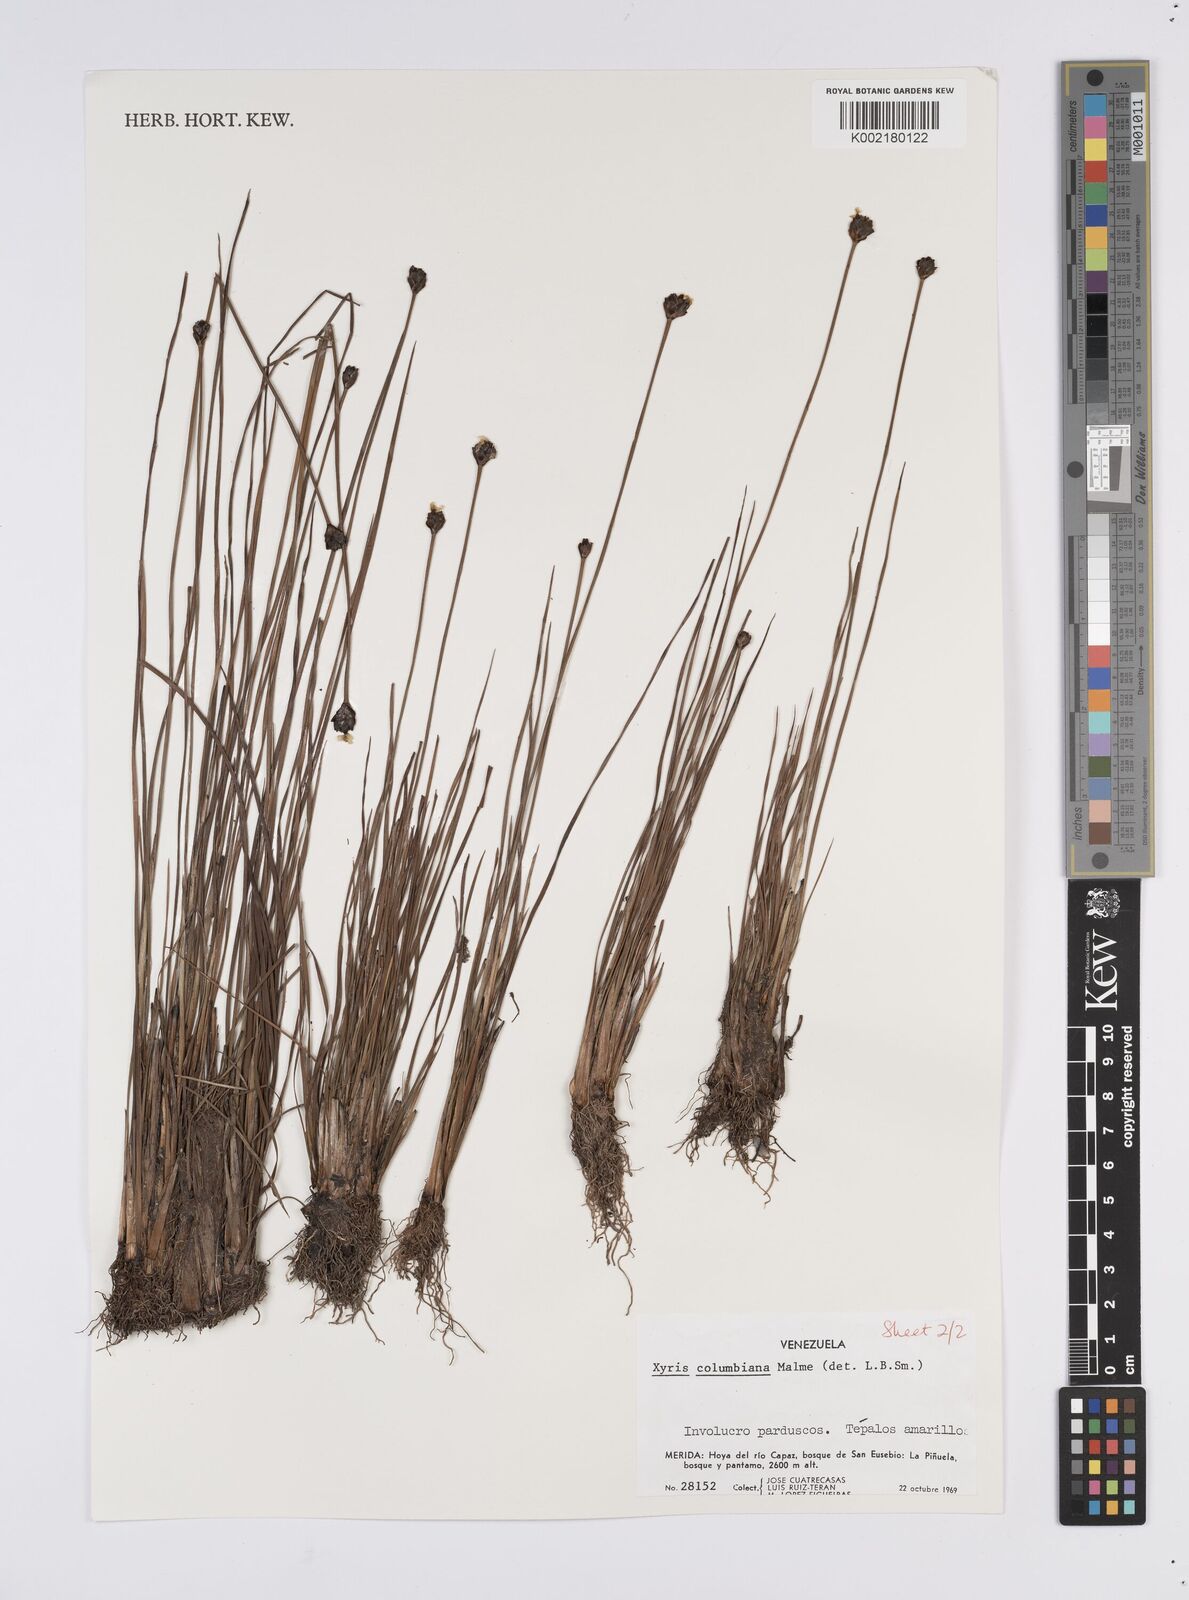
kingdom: Plantae
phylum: Tracheophyta
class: Liliopsida
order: Poales
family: Xyridaceae
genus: Xyris
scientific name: Xyris columbiana
